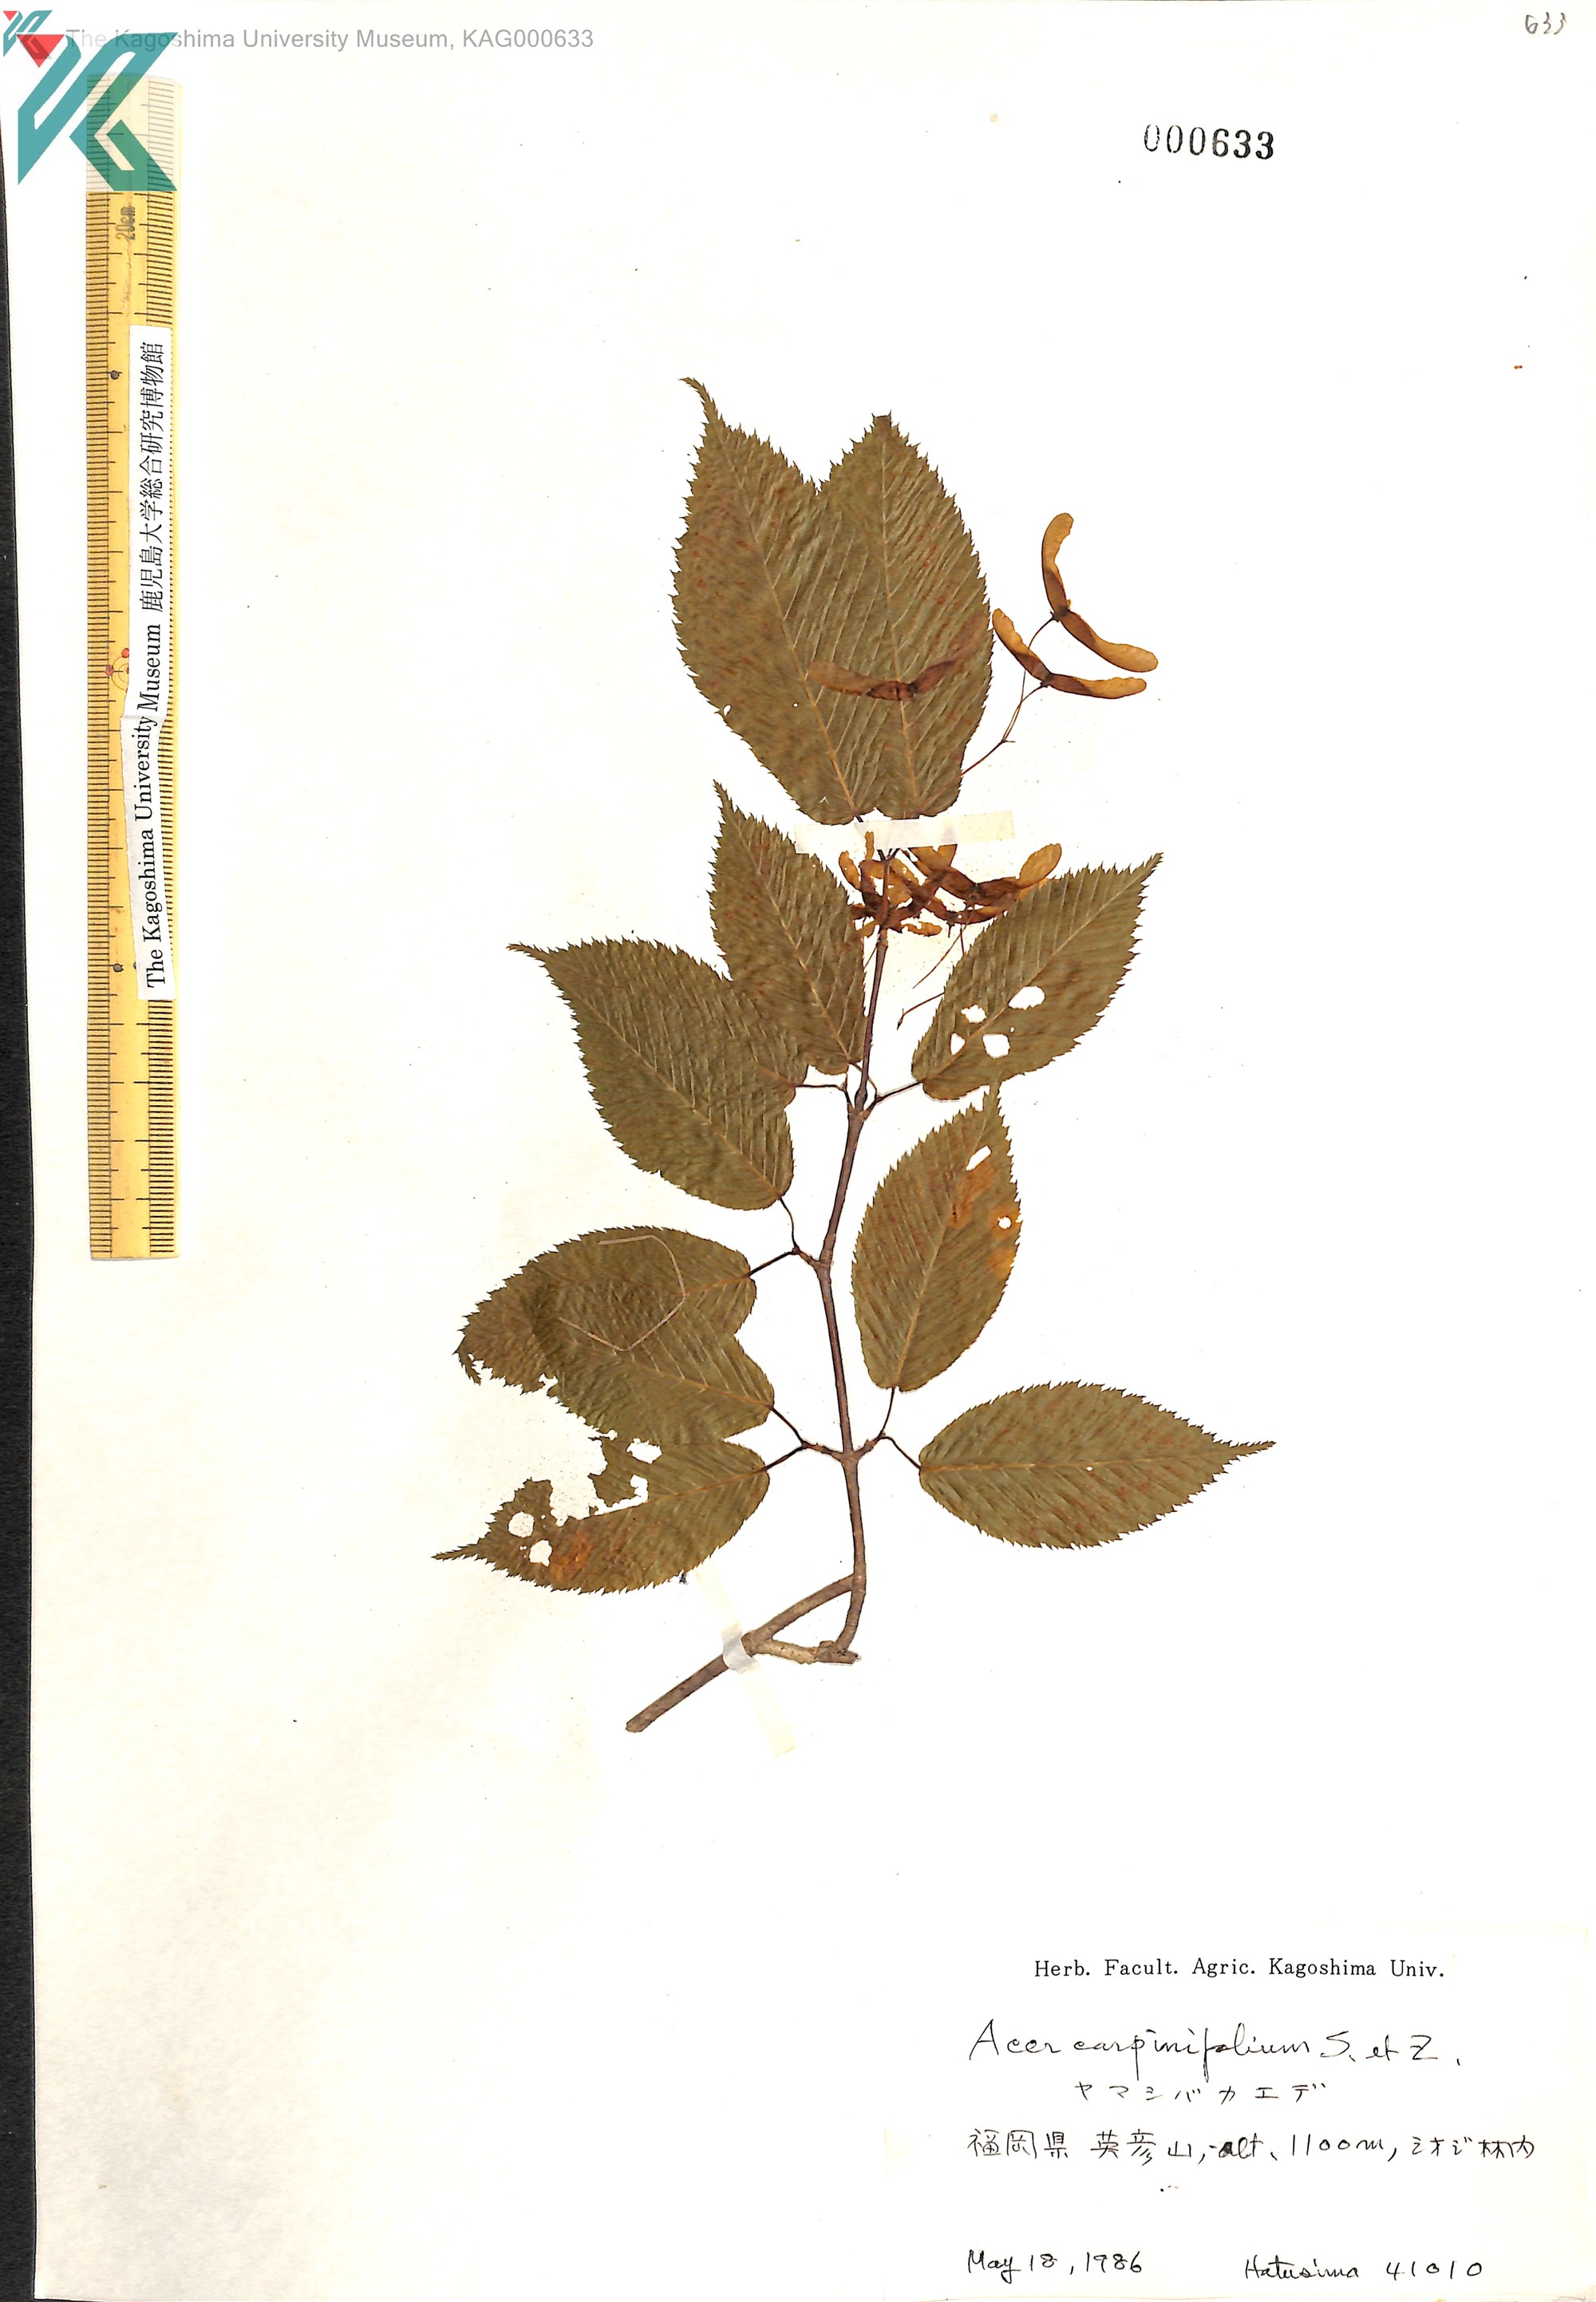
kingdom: Plantae
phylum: Tracheophyta
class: Magnoliopsida
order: Sapindales
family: Sapindaceae
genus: Acer
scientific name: Acer carpinifolium
